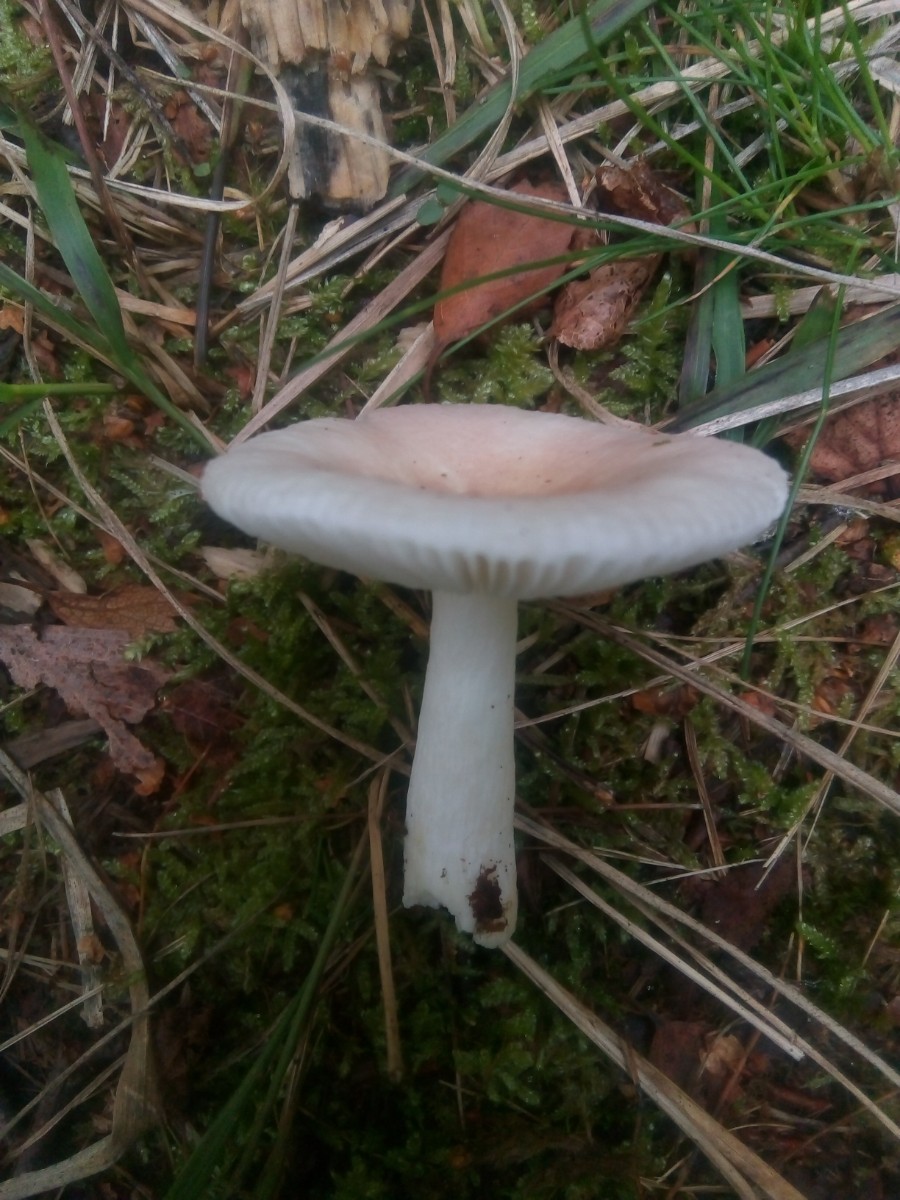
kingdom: Fungi
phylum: Basidiomycota
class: Agaricomycetes
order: Russulales
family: Russulaceae
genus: Russula
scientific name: Russula betularum
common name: bleg gift-skørhat
